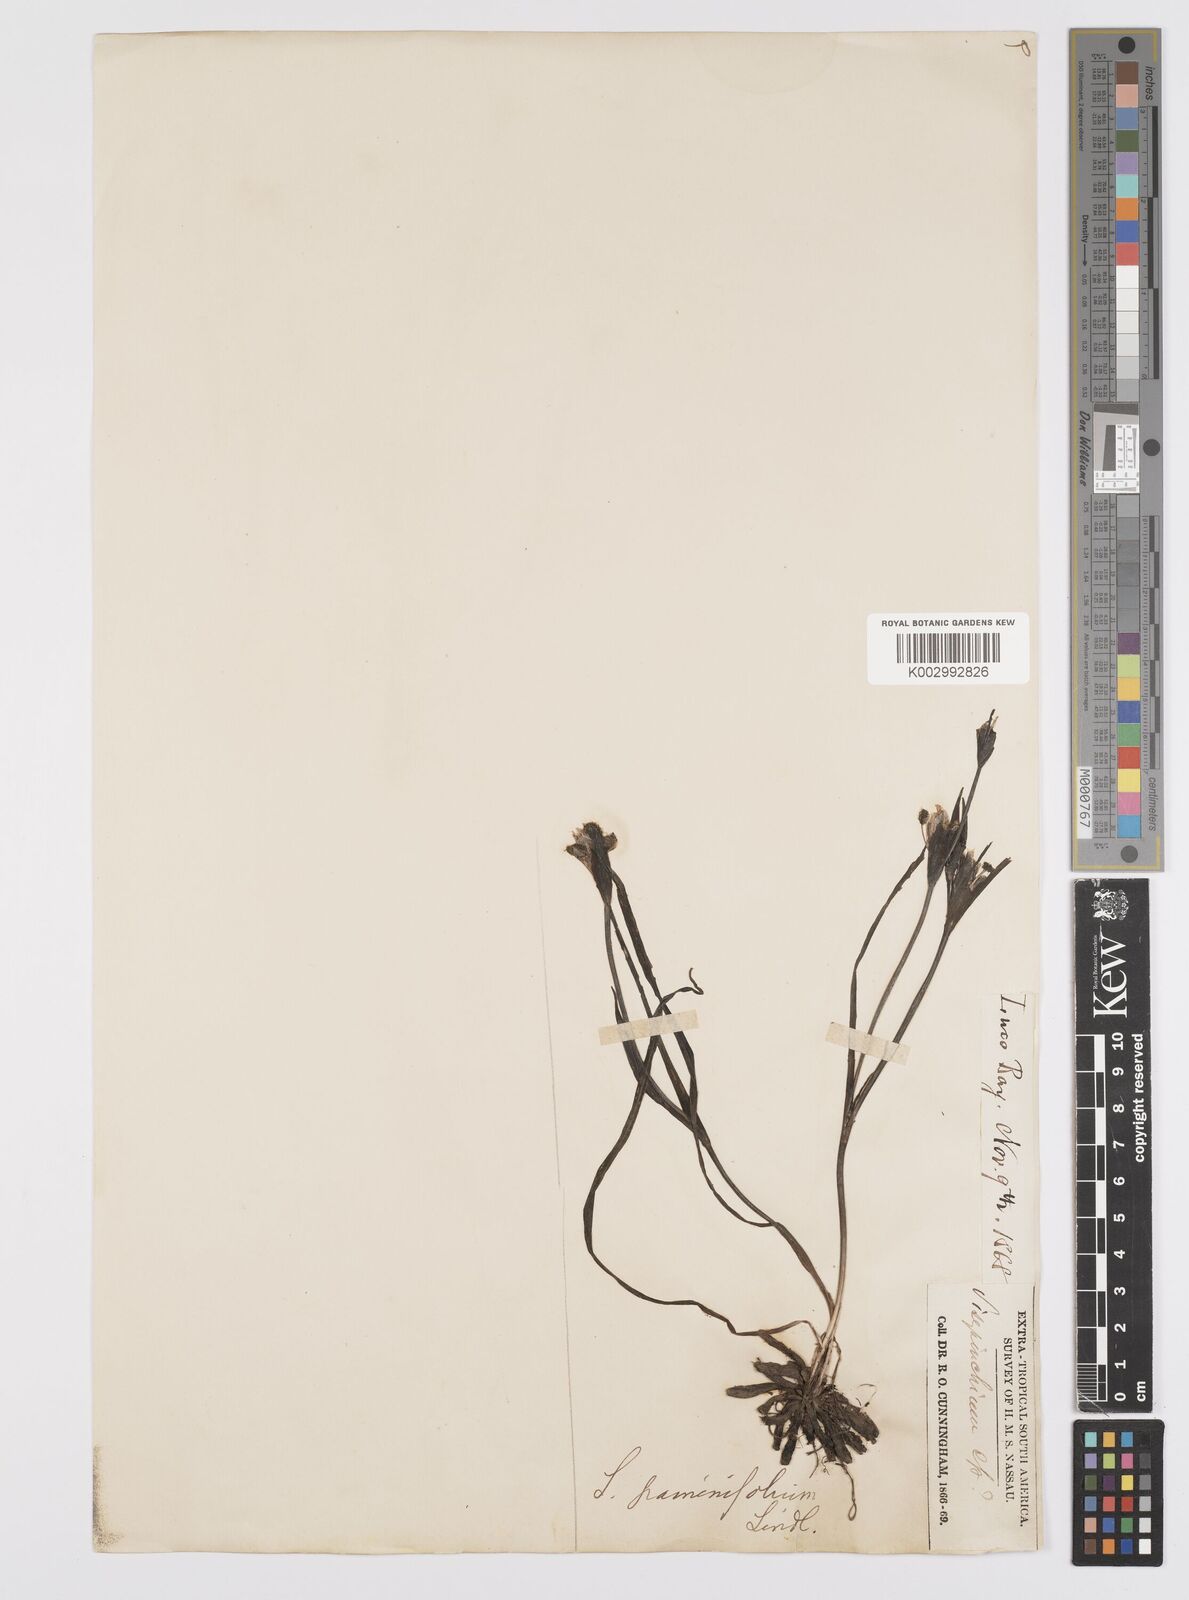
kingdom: Plantae
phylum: Tracheophyta
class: Liliopsida
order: Asparagales
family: Iridaceae
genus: Sisyrinchium
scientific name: Sisyrinchium graminifolium
